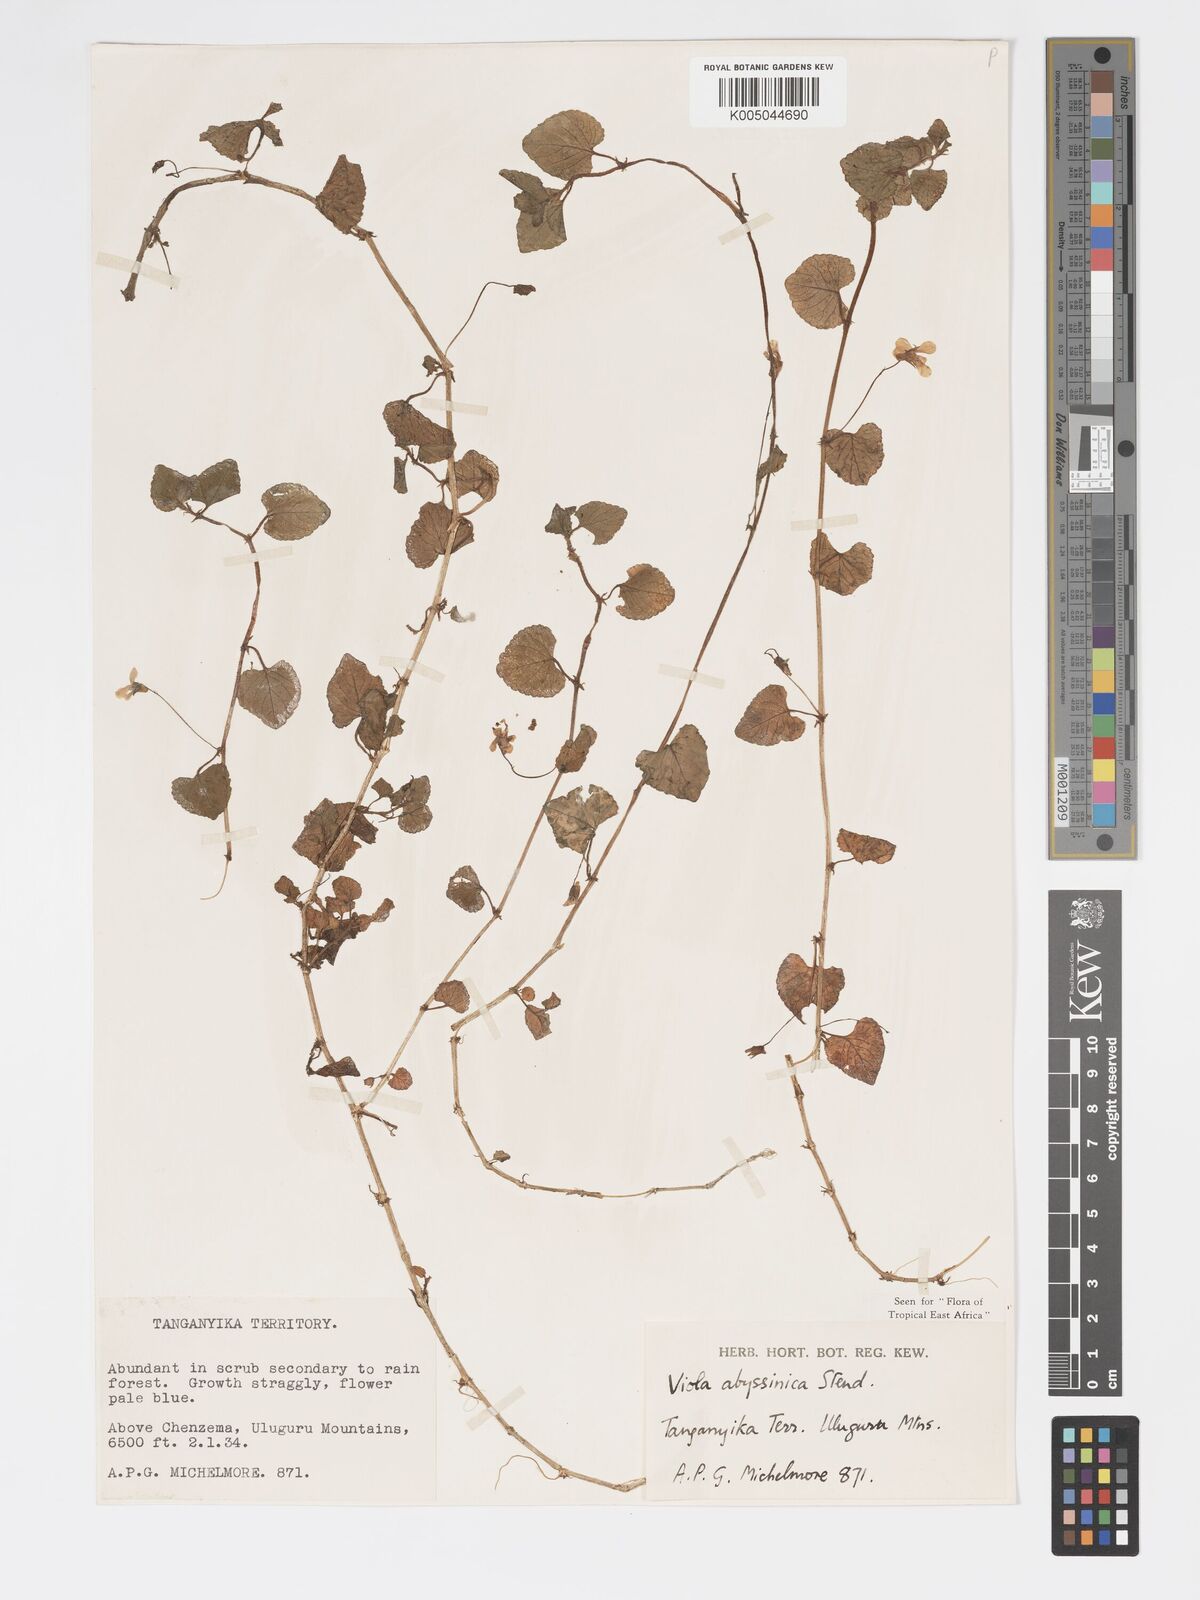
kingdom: Plantae
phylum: Tracheophyta
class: Magnoliopsida
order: Malpighiales
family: Violaceae
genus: Viola
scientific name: Viola abyssinica
